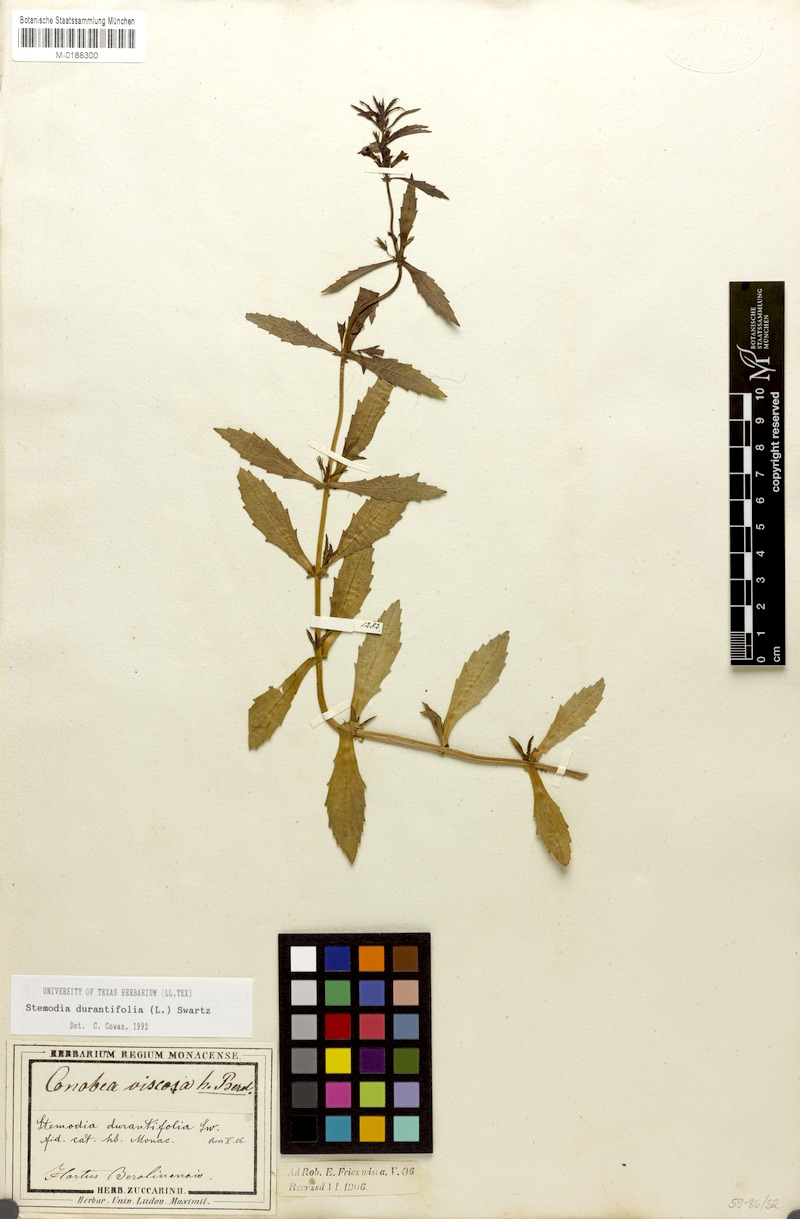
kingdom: Plantae
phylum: Tracheophyta
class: Magnoliopsida
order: Lamiales
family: Plantaginaceae
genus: Stemodia
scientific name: Stemodia durantifolia
